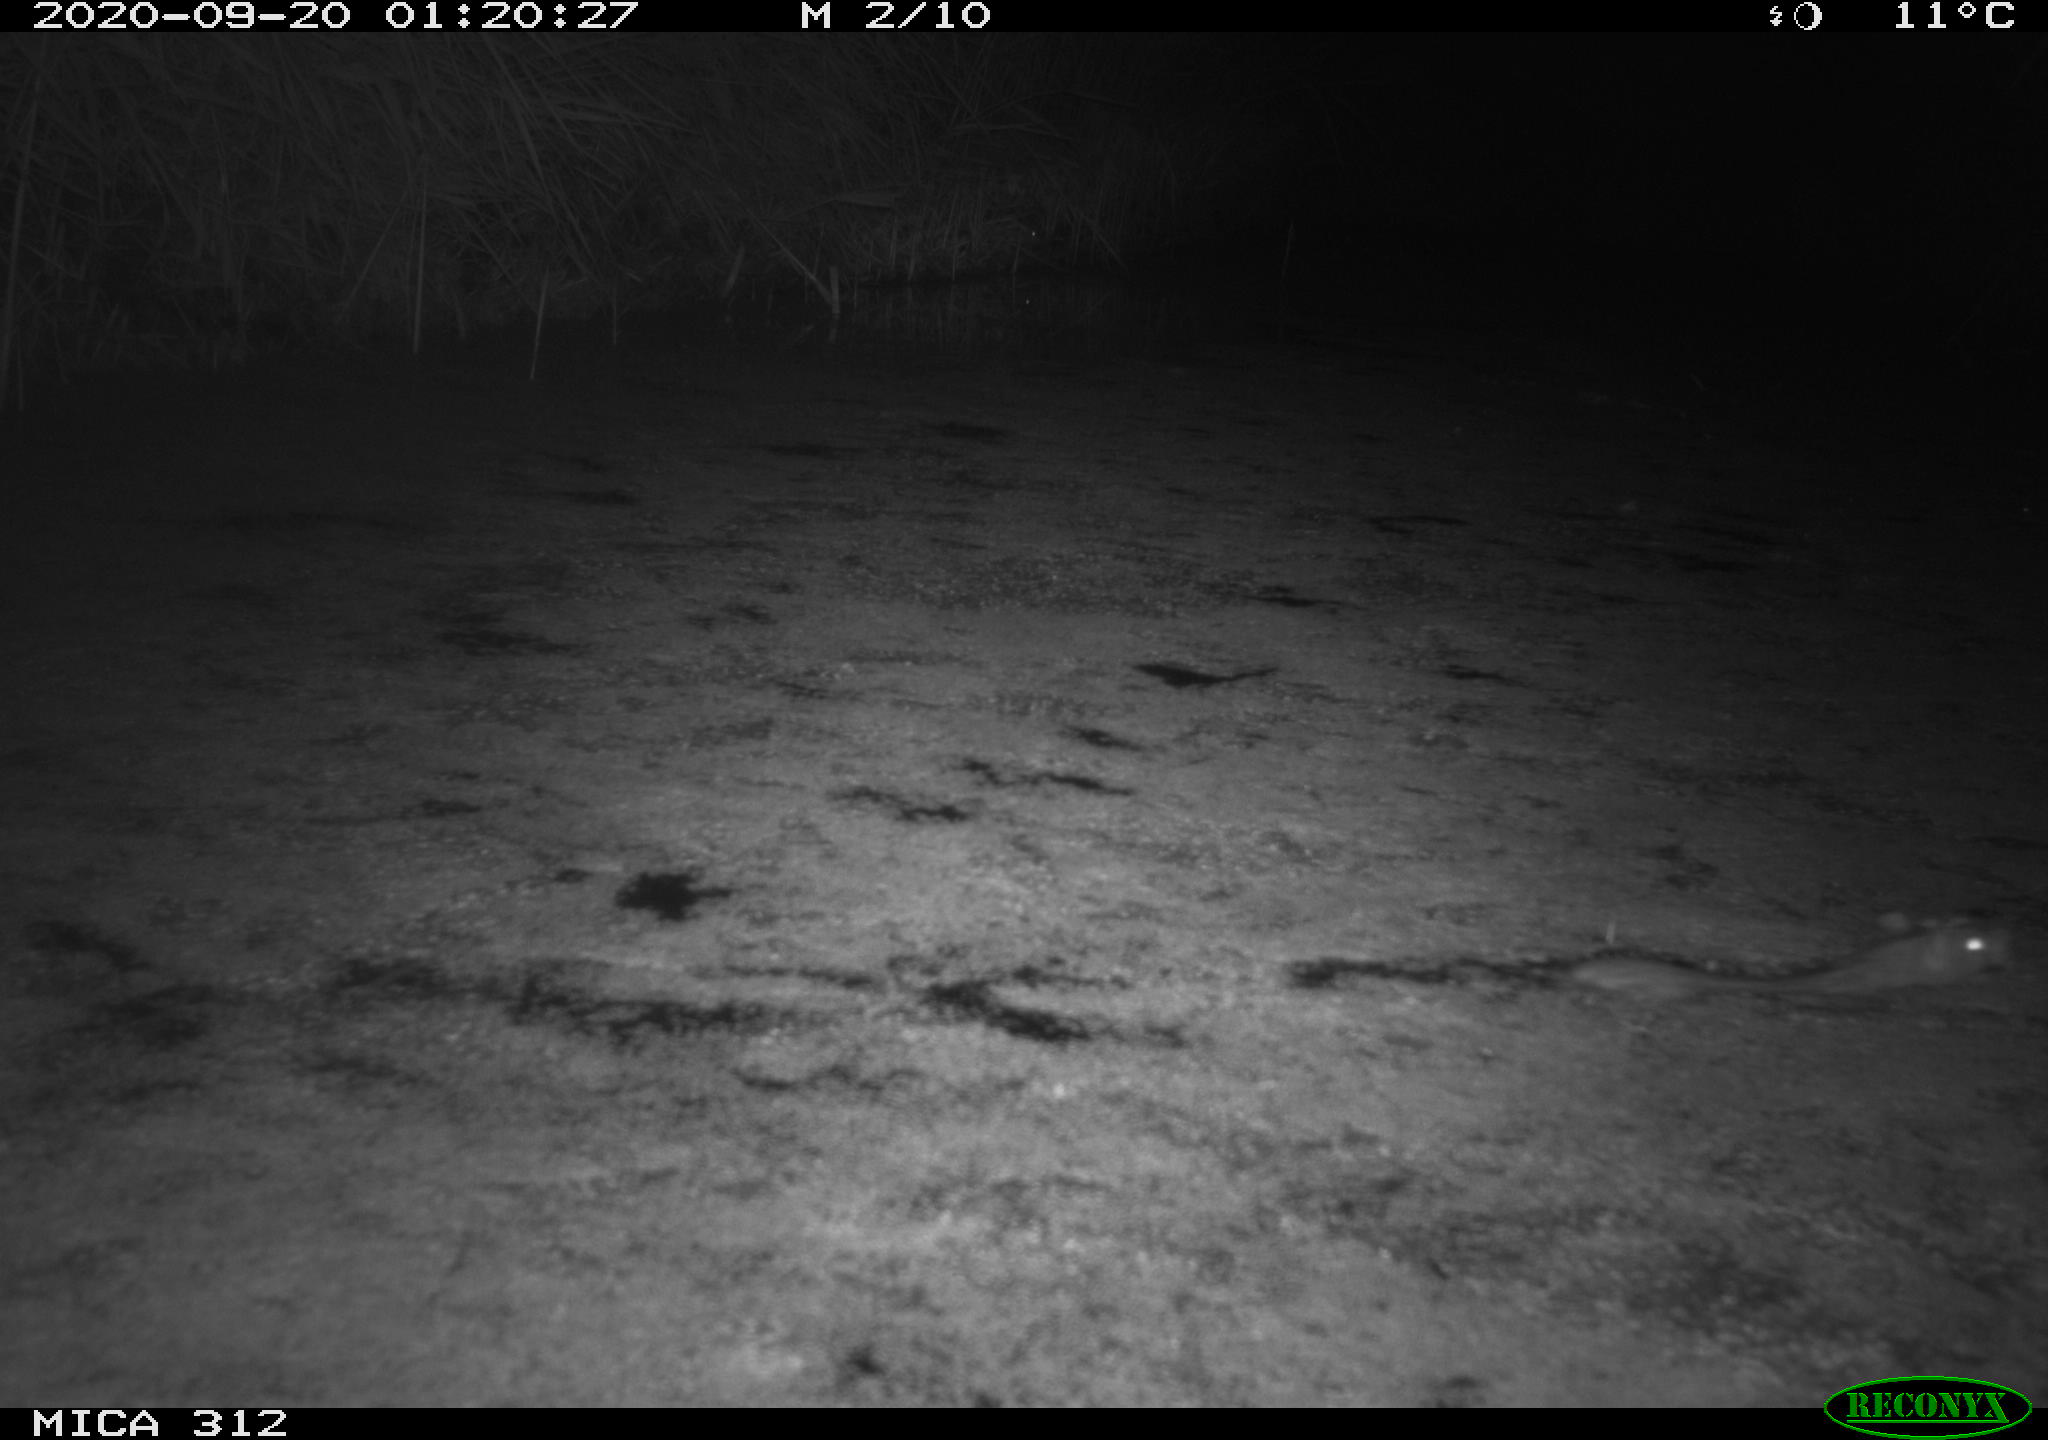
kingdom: Animalia
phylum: Chordata
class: Mammalia
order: Rodentia
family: Muridae
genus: Rattus
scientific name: Rattus norvegicus
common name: Brown rat
